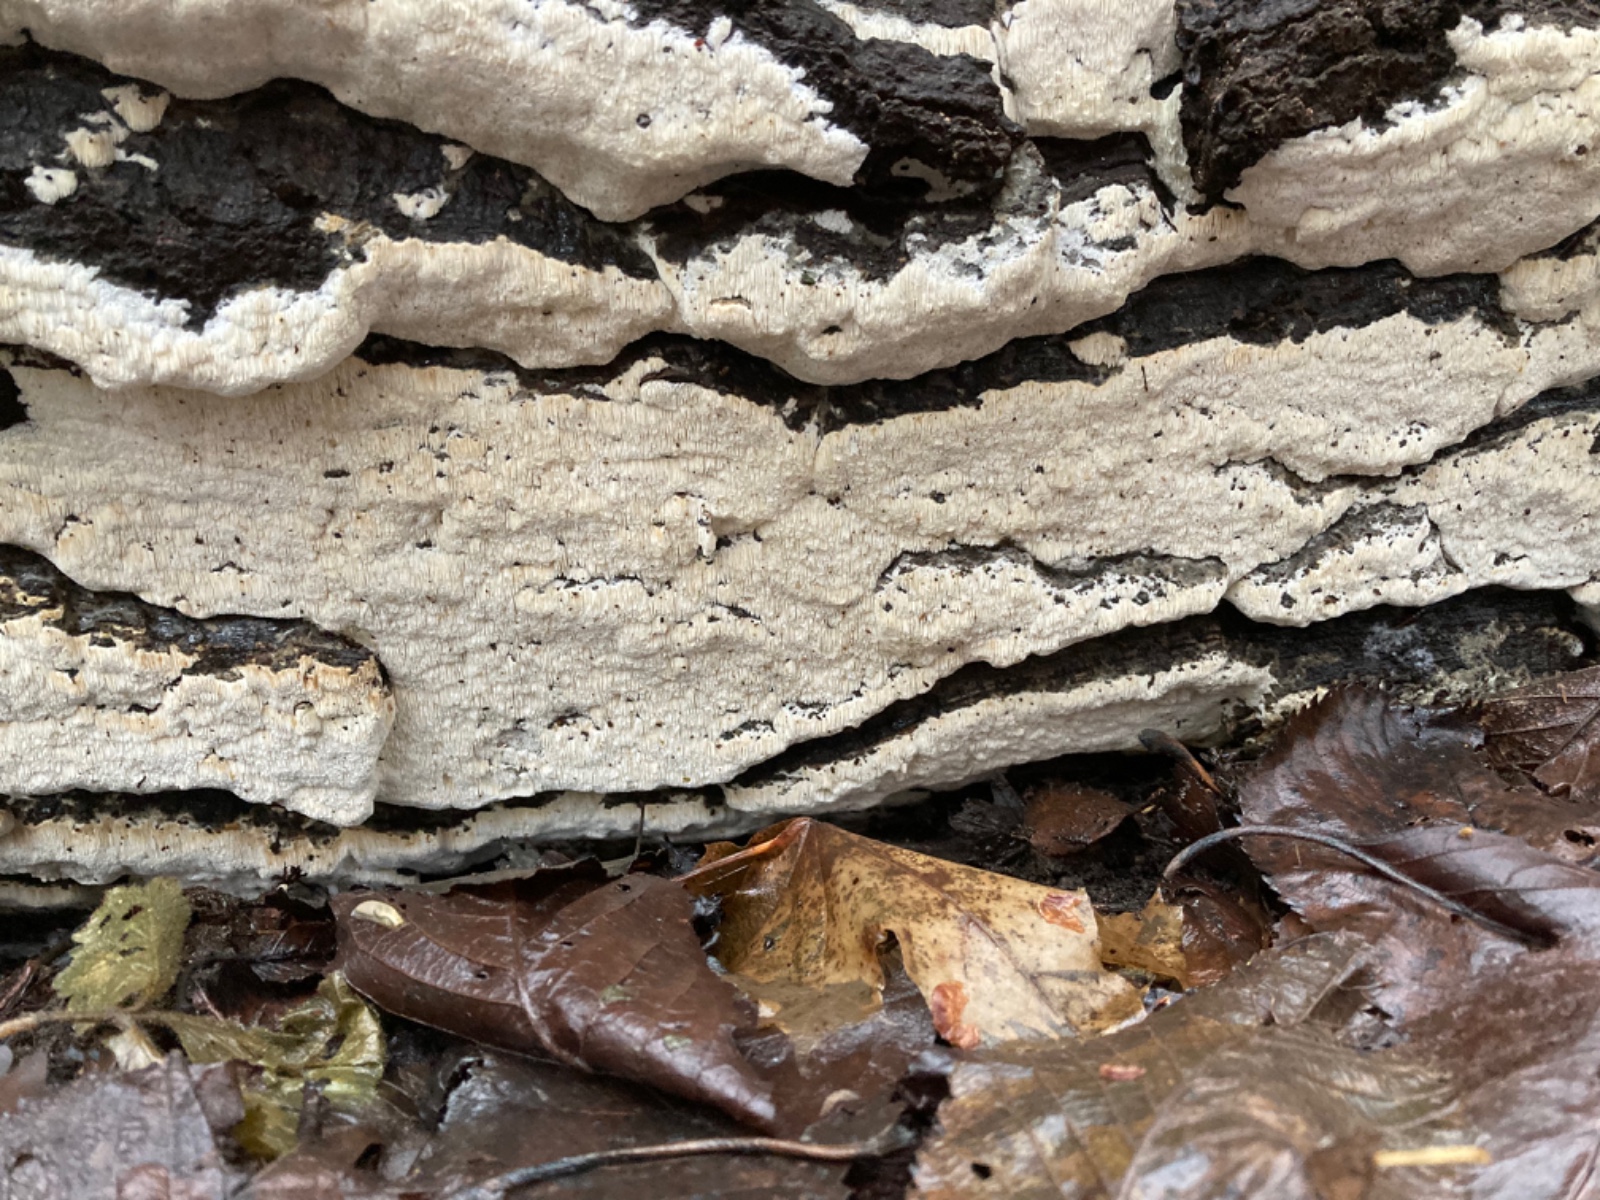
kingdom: Fungi
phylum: Basidiomycota
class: Agaricomycetes
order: Hymenochaetales
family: Oxyporaceae
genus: Oxyporus
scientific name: Oxyporus obducens
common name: skorpe-trylleporesvamp
